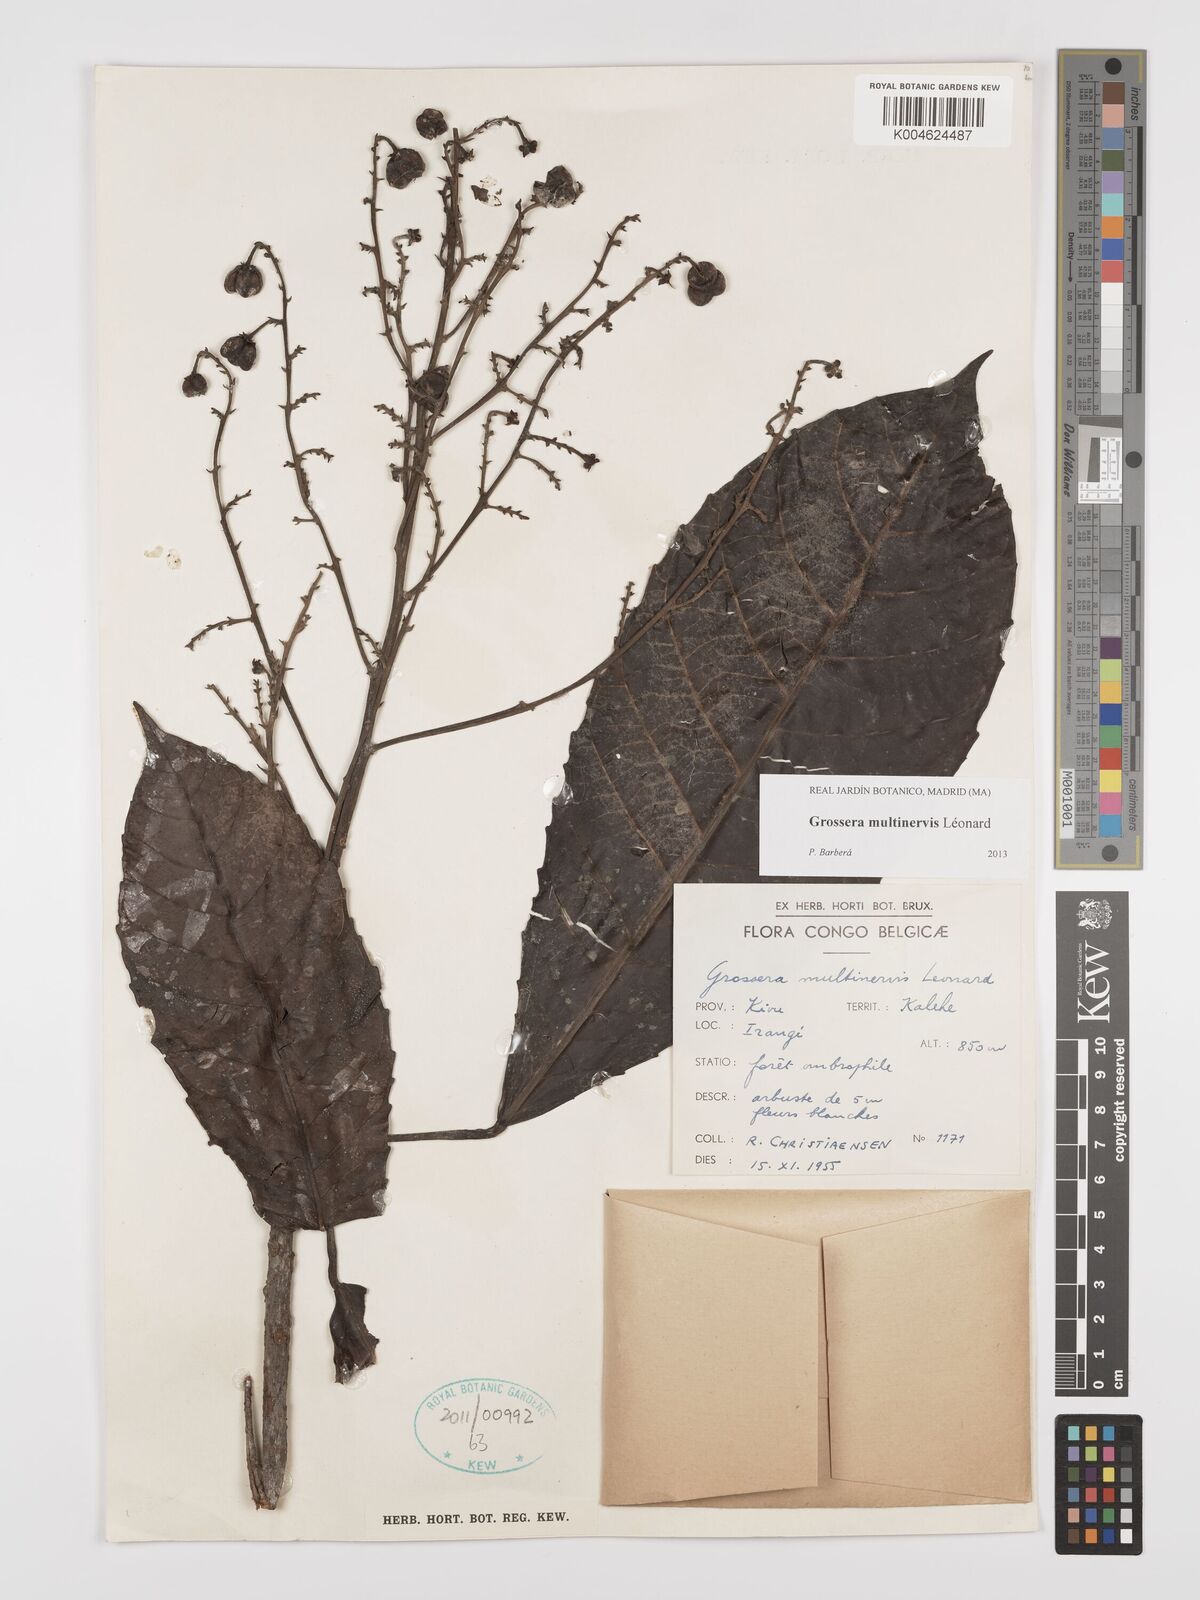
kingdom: Plantae
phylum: Tracheophyta
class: Magnoliopsida
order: Malpighiales
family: Euphorbiaceae
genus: Grossera
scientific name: Grossera multinervis
